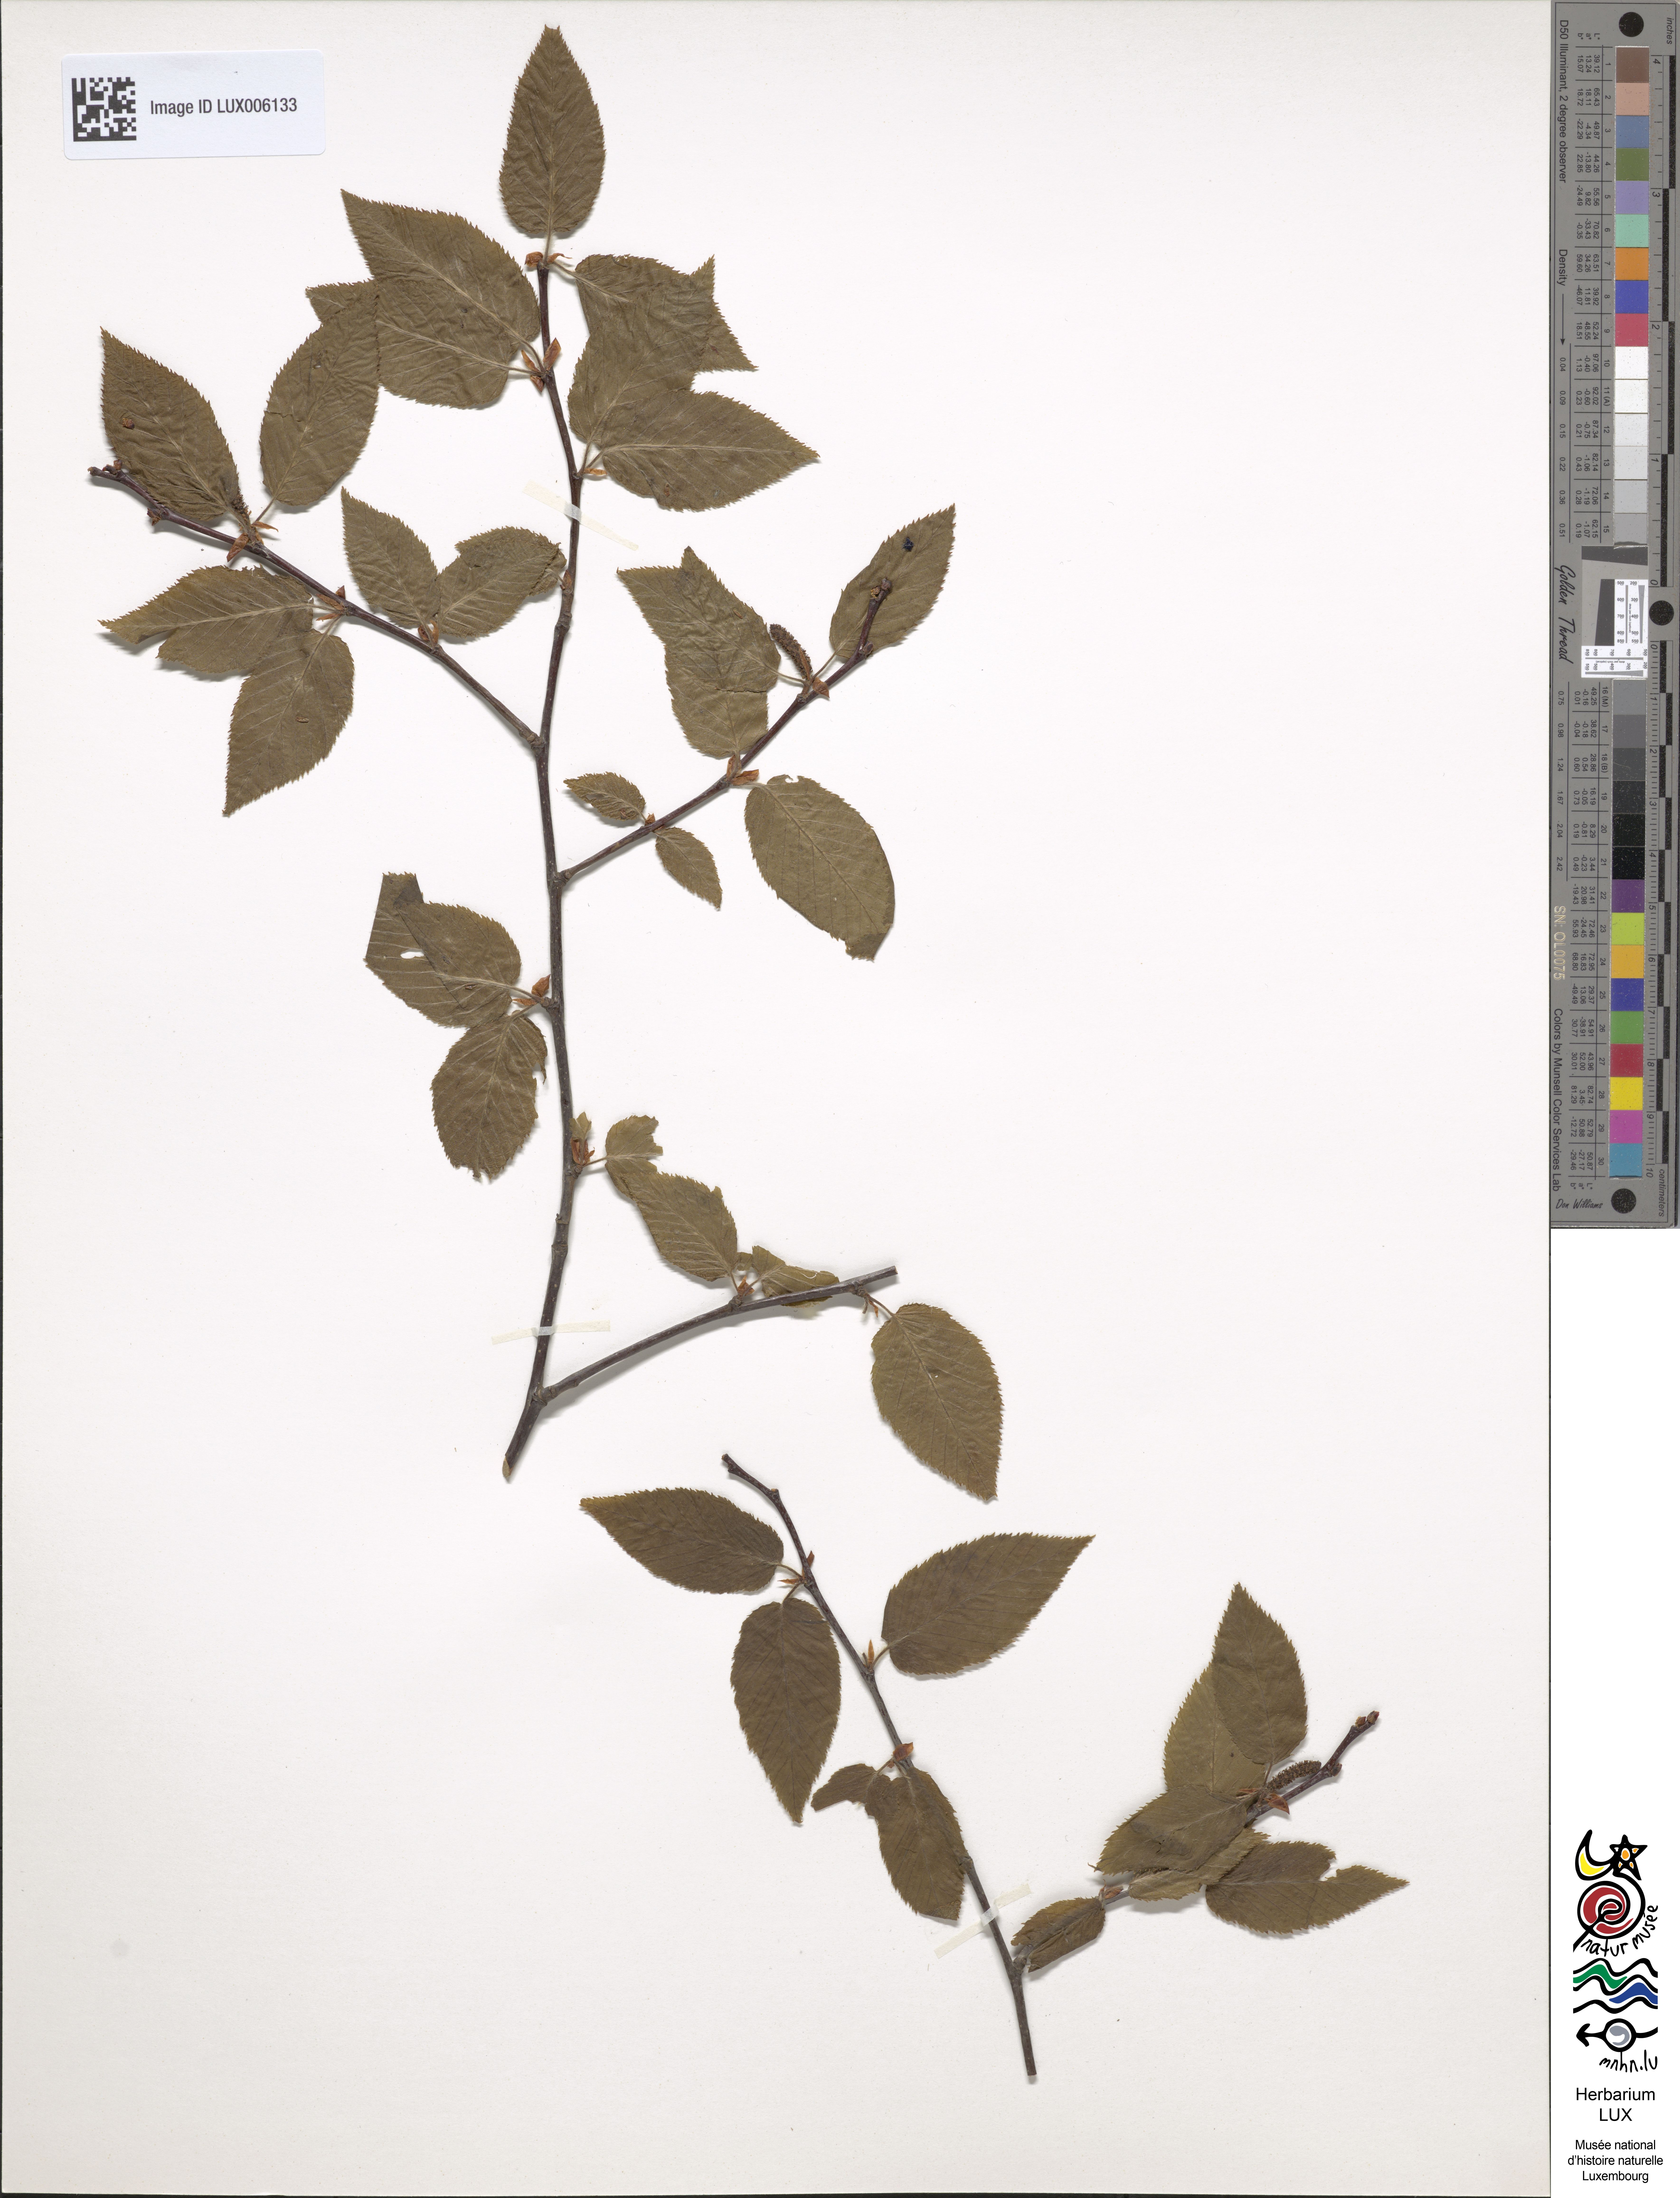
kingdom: Plantae
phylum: Tracheophyta
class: Magnoliopsida
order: Fagales
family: Betulaceae
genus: Betula
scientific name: Betula lenta
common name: Black birch
